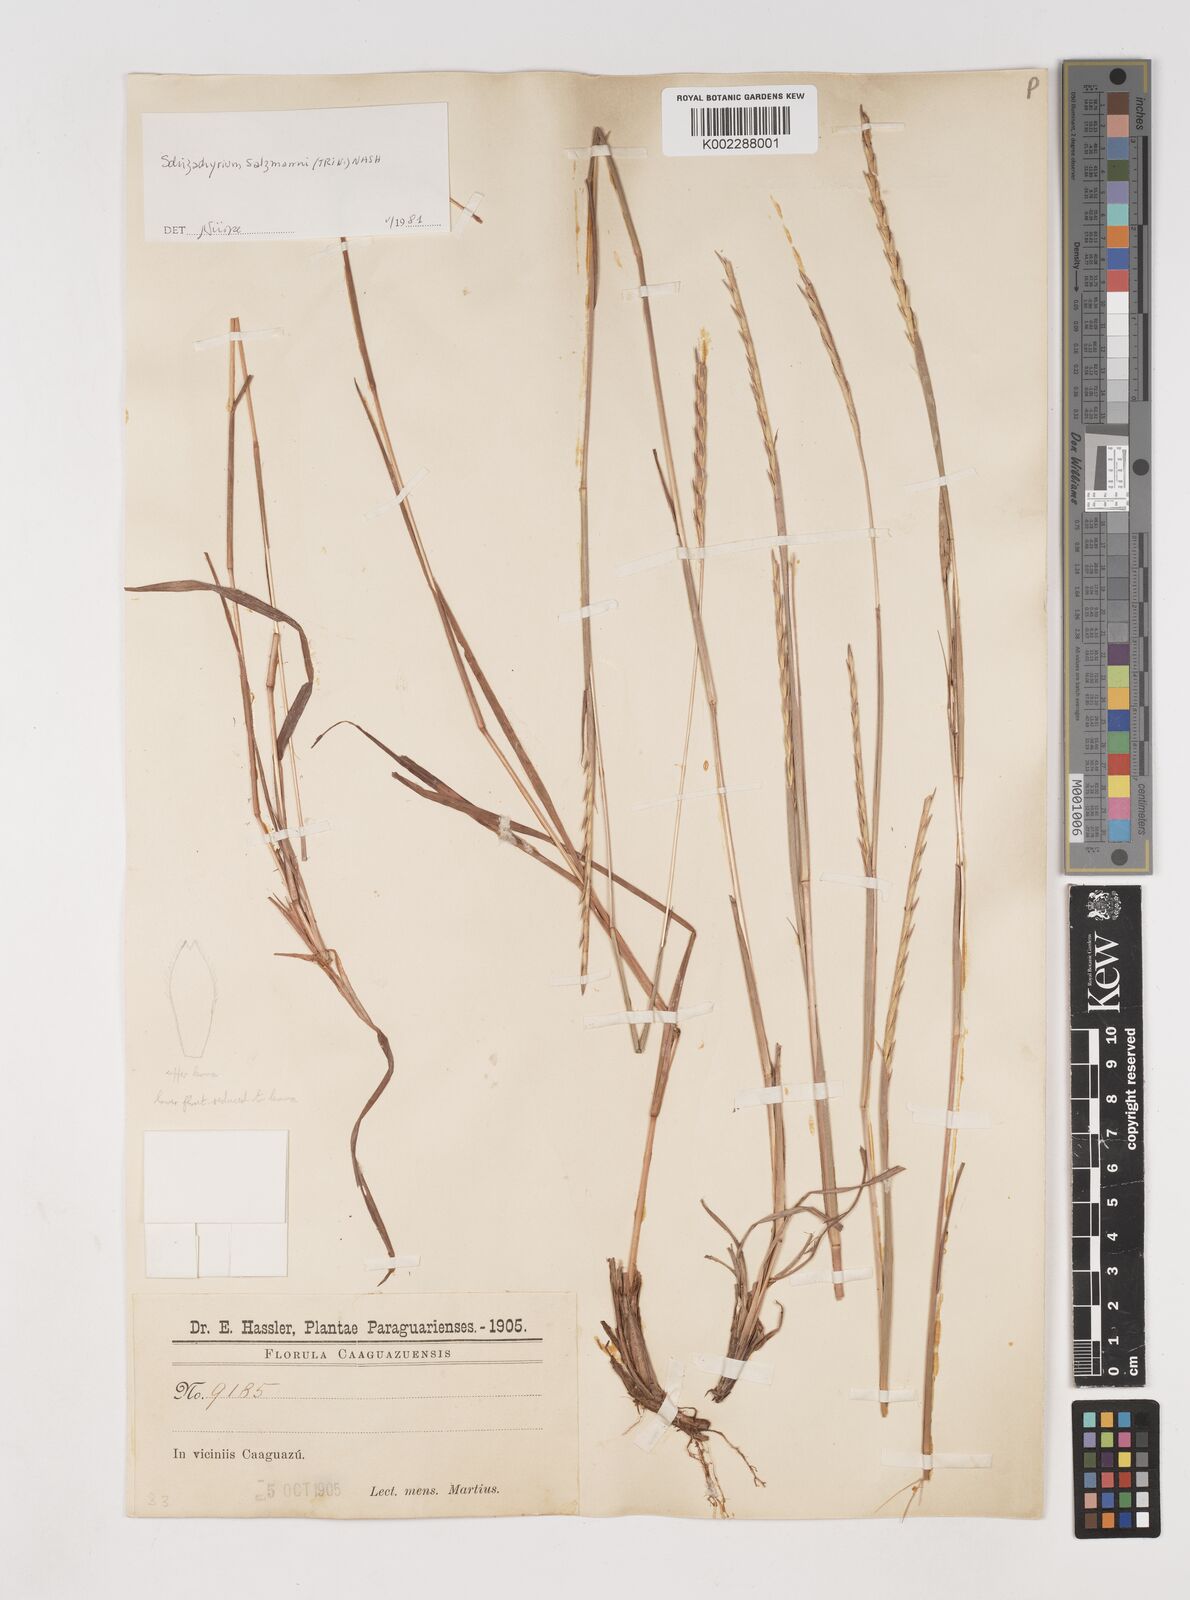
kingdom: Plantae
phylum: Tracheophyta
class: Liliopsida
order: Poales
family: Poaceae
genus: Andropogon
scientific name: Andropogon salzmannii
